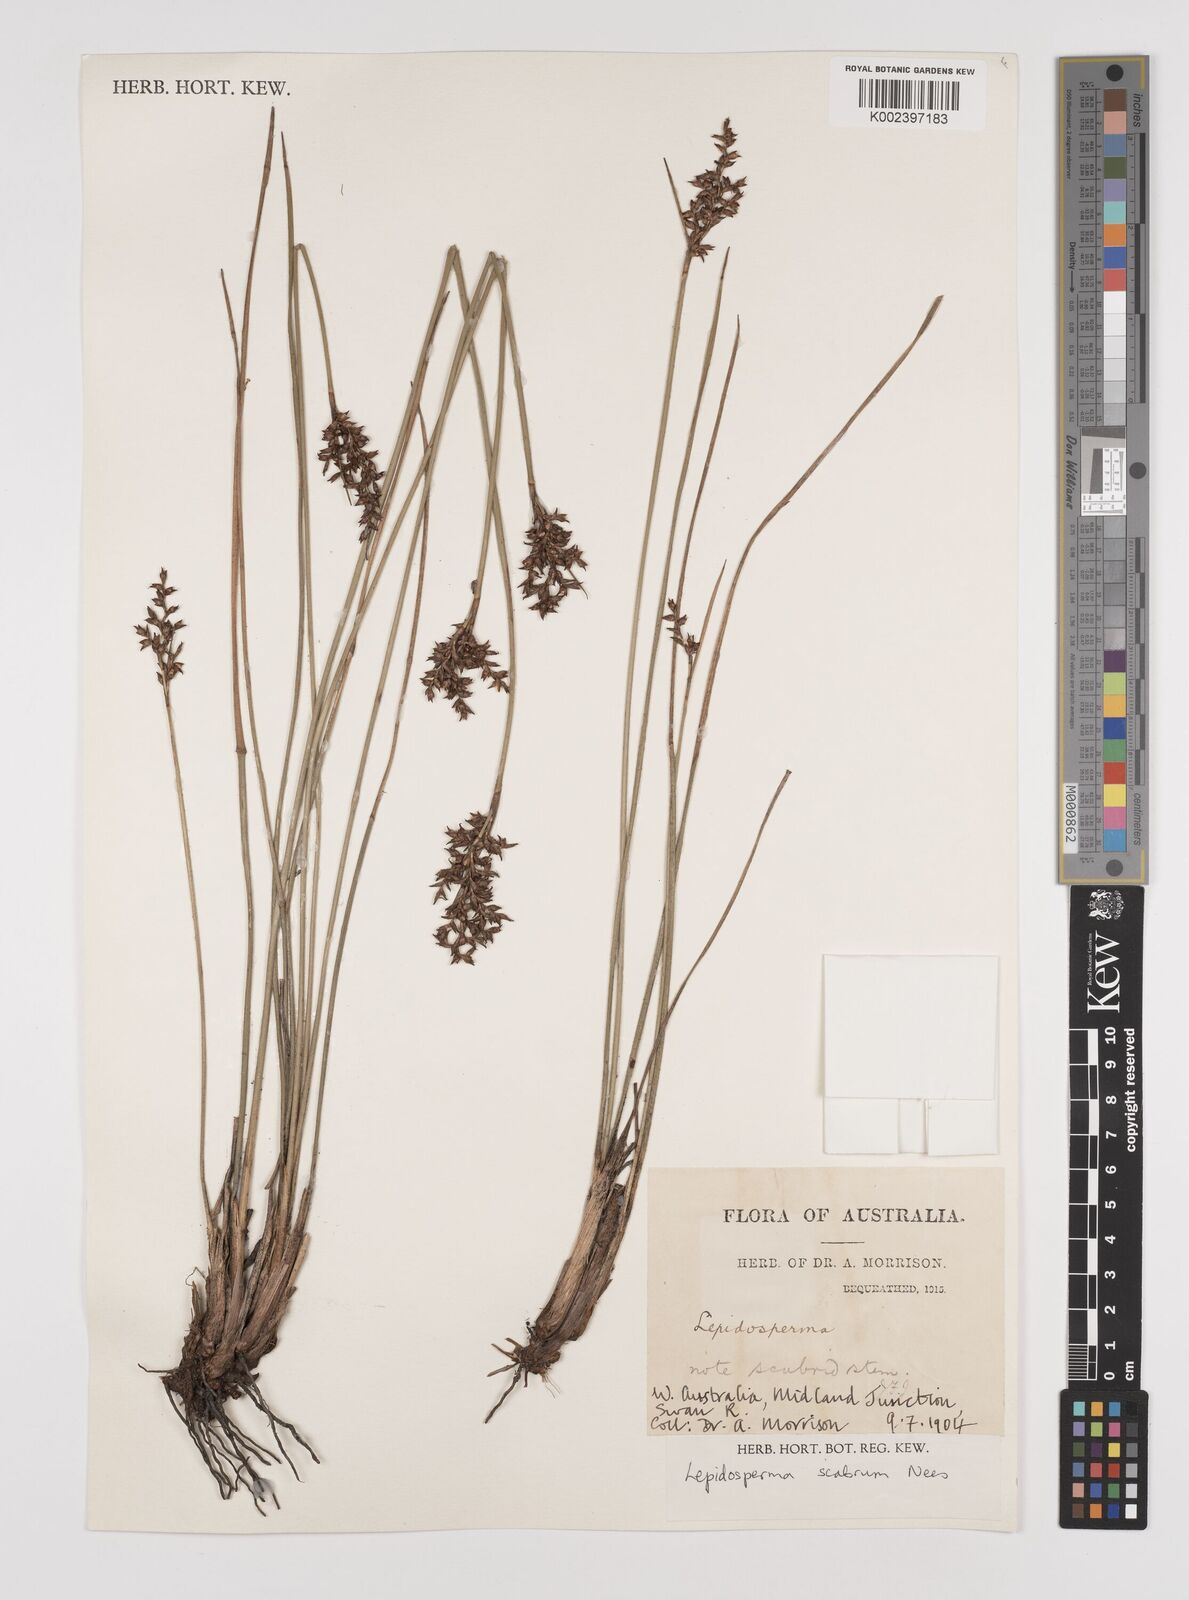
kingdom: Plantae
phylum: Tracheophyta
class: Liliopsida
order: Poales
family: Cyperaceae
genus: Lepidosperma
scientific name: Lepidosperma scabrum
